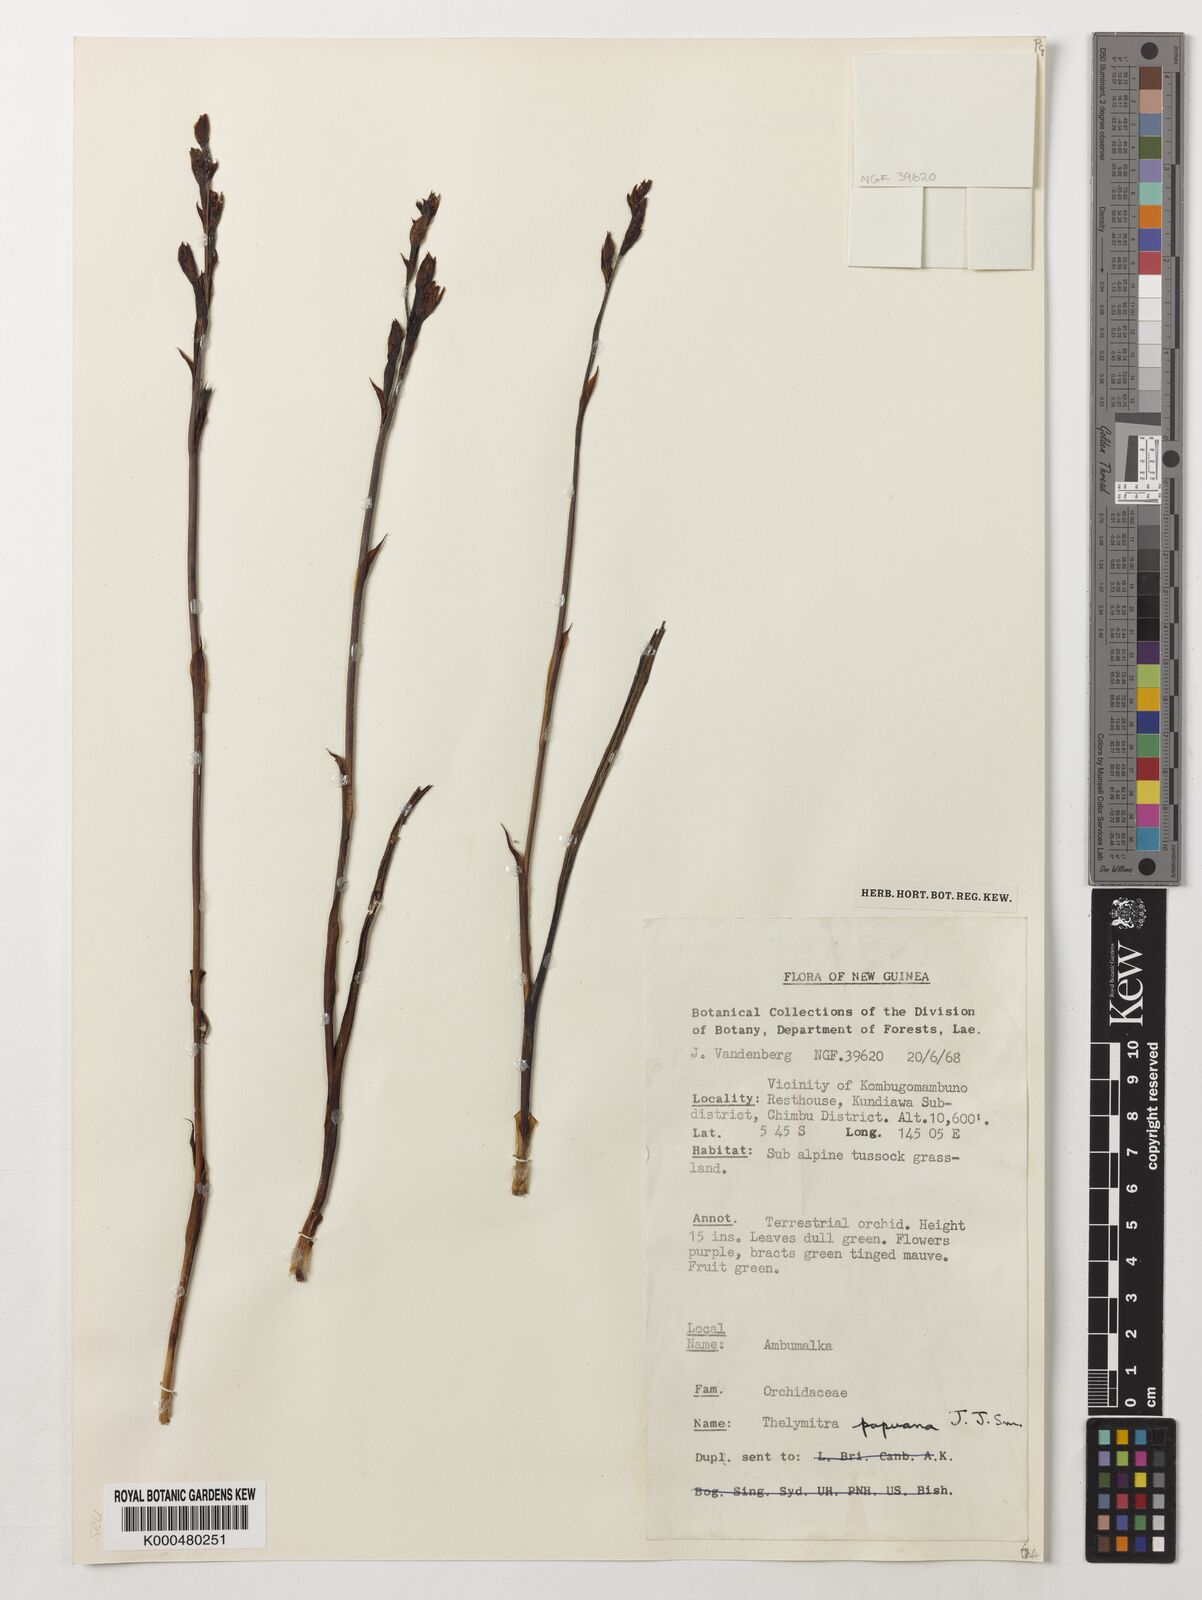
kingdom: Plantae
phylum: Tracheophyta
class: Liliopsida
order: Asparagales
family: Orchidaceae
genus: Thelymitra
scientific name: Thelymitra papuana
